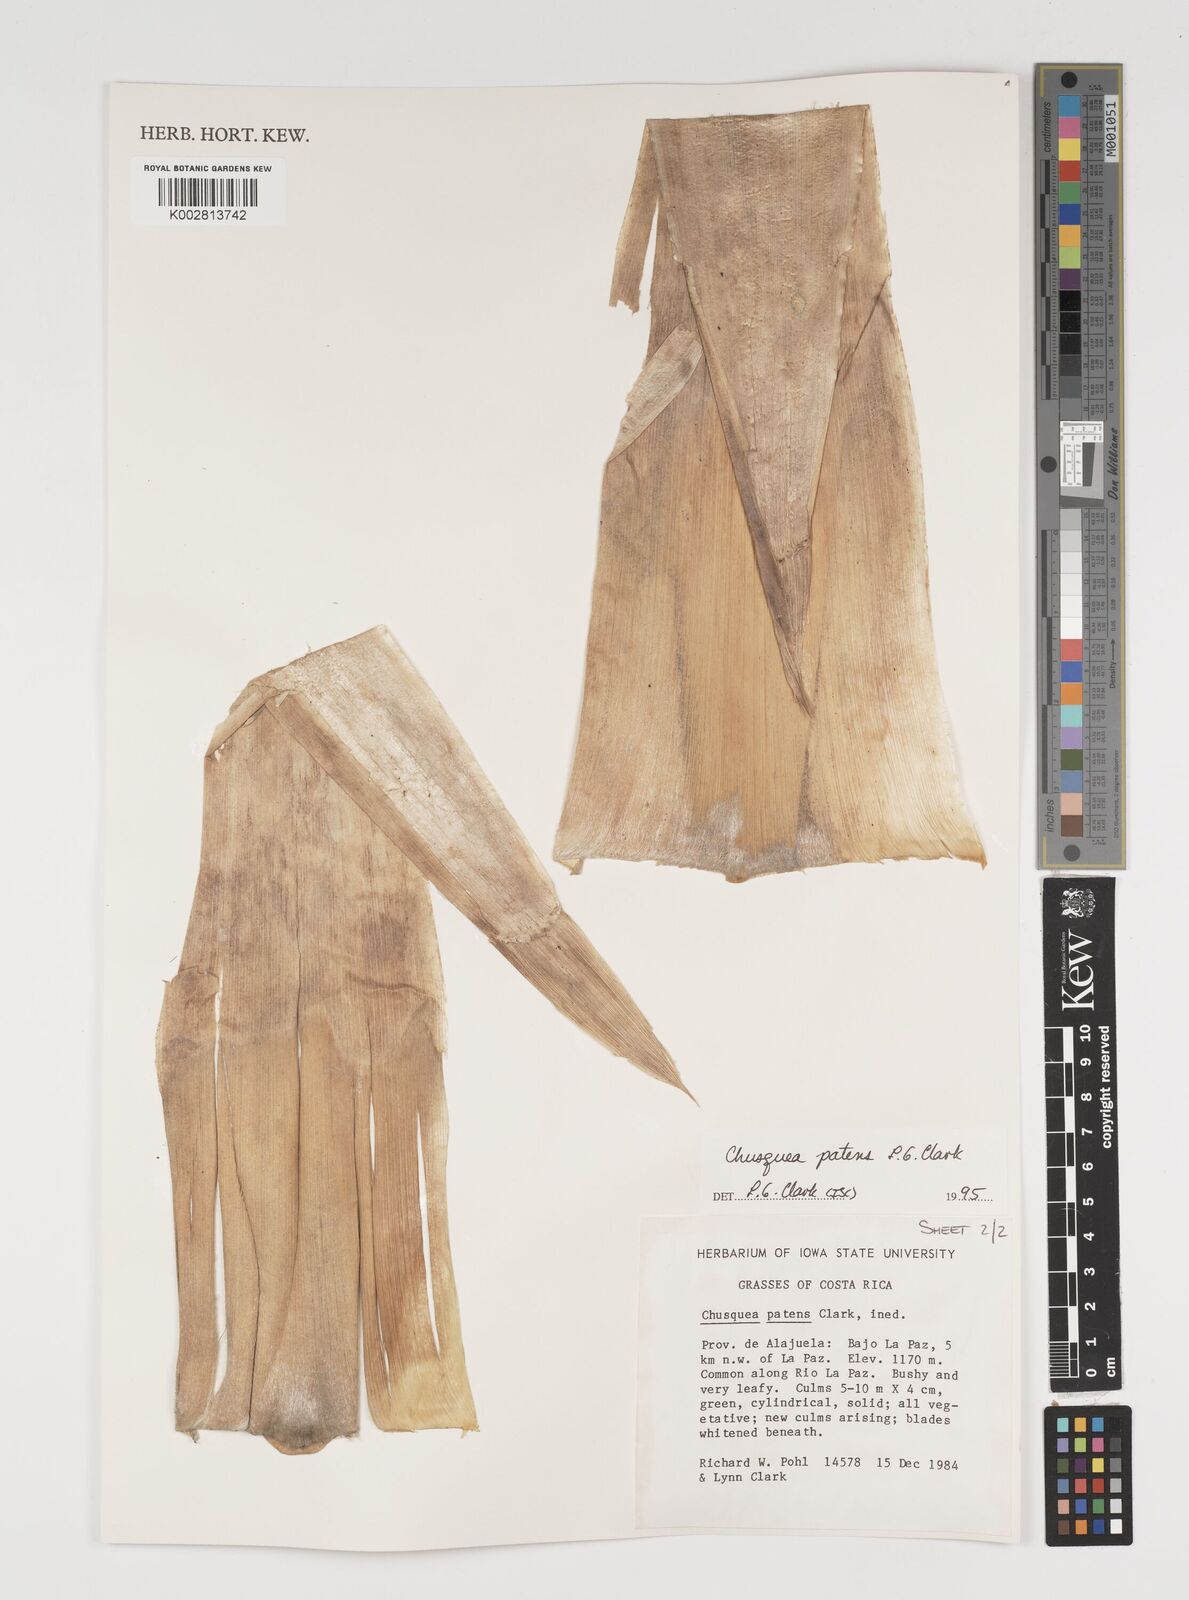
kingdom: Plantae
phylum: Tracheophyta
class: Liliopsida
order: Poales
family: Poaceae
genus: Chusquea
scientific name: Chusquea patens
